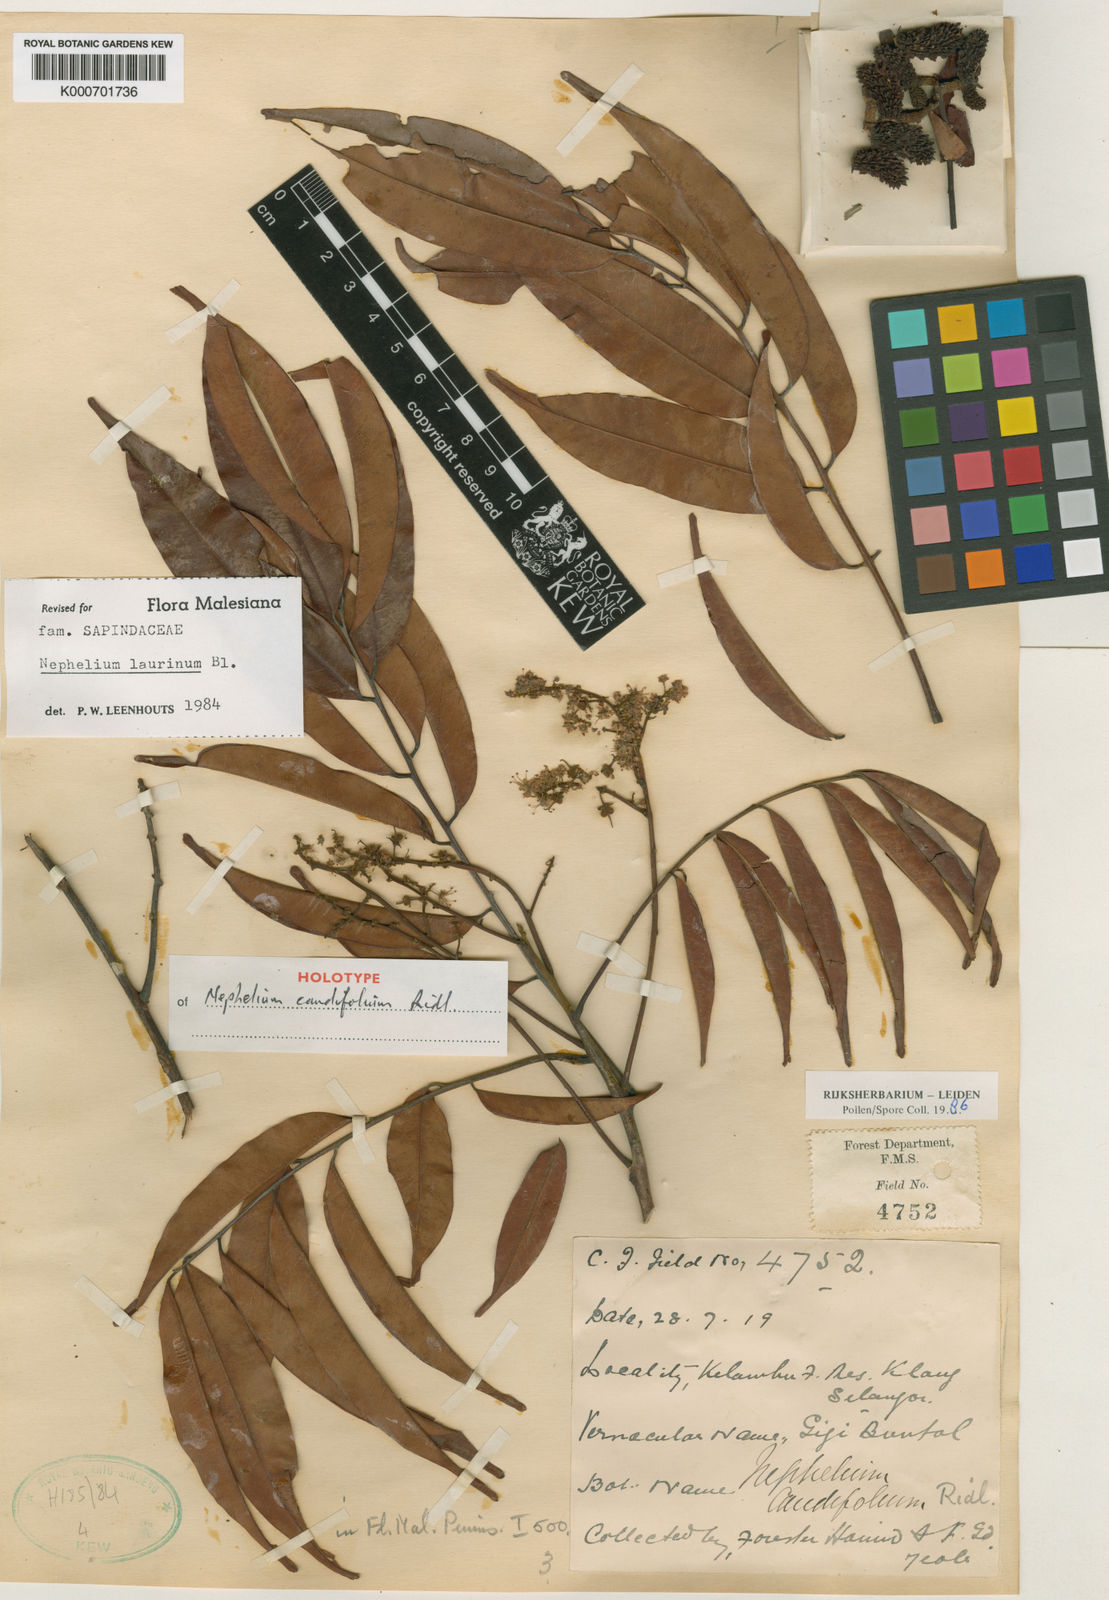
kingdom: Plantae
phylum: Tracheophyta
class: Magnoliopsida
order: Sapindales
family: Sapindaceae
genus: Nephelium
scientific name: Nephelium laurinum
